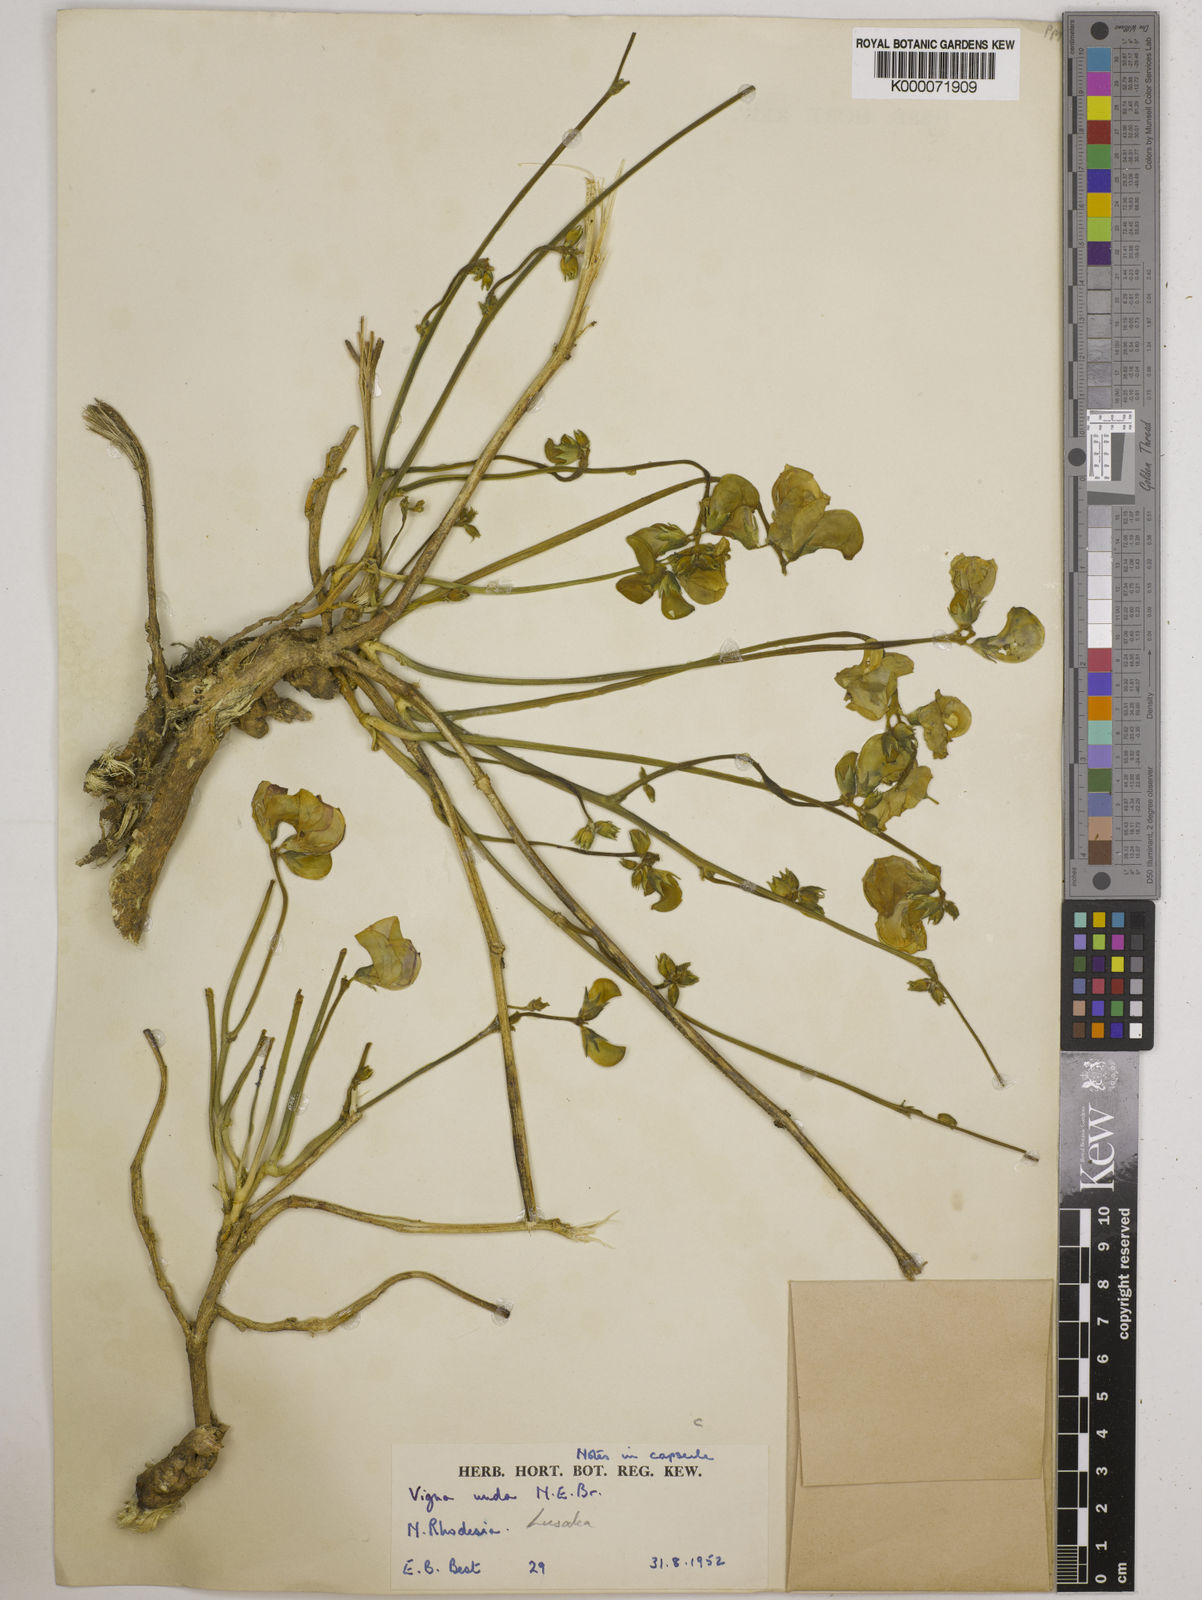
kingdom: Plantae
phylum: Tracheophyta
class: Magnoliopsida
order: Fabales
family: Fabaceae
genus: Vigna
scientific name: Vigna antunesii
